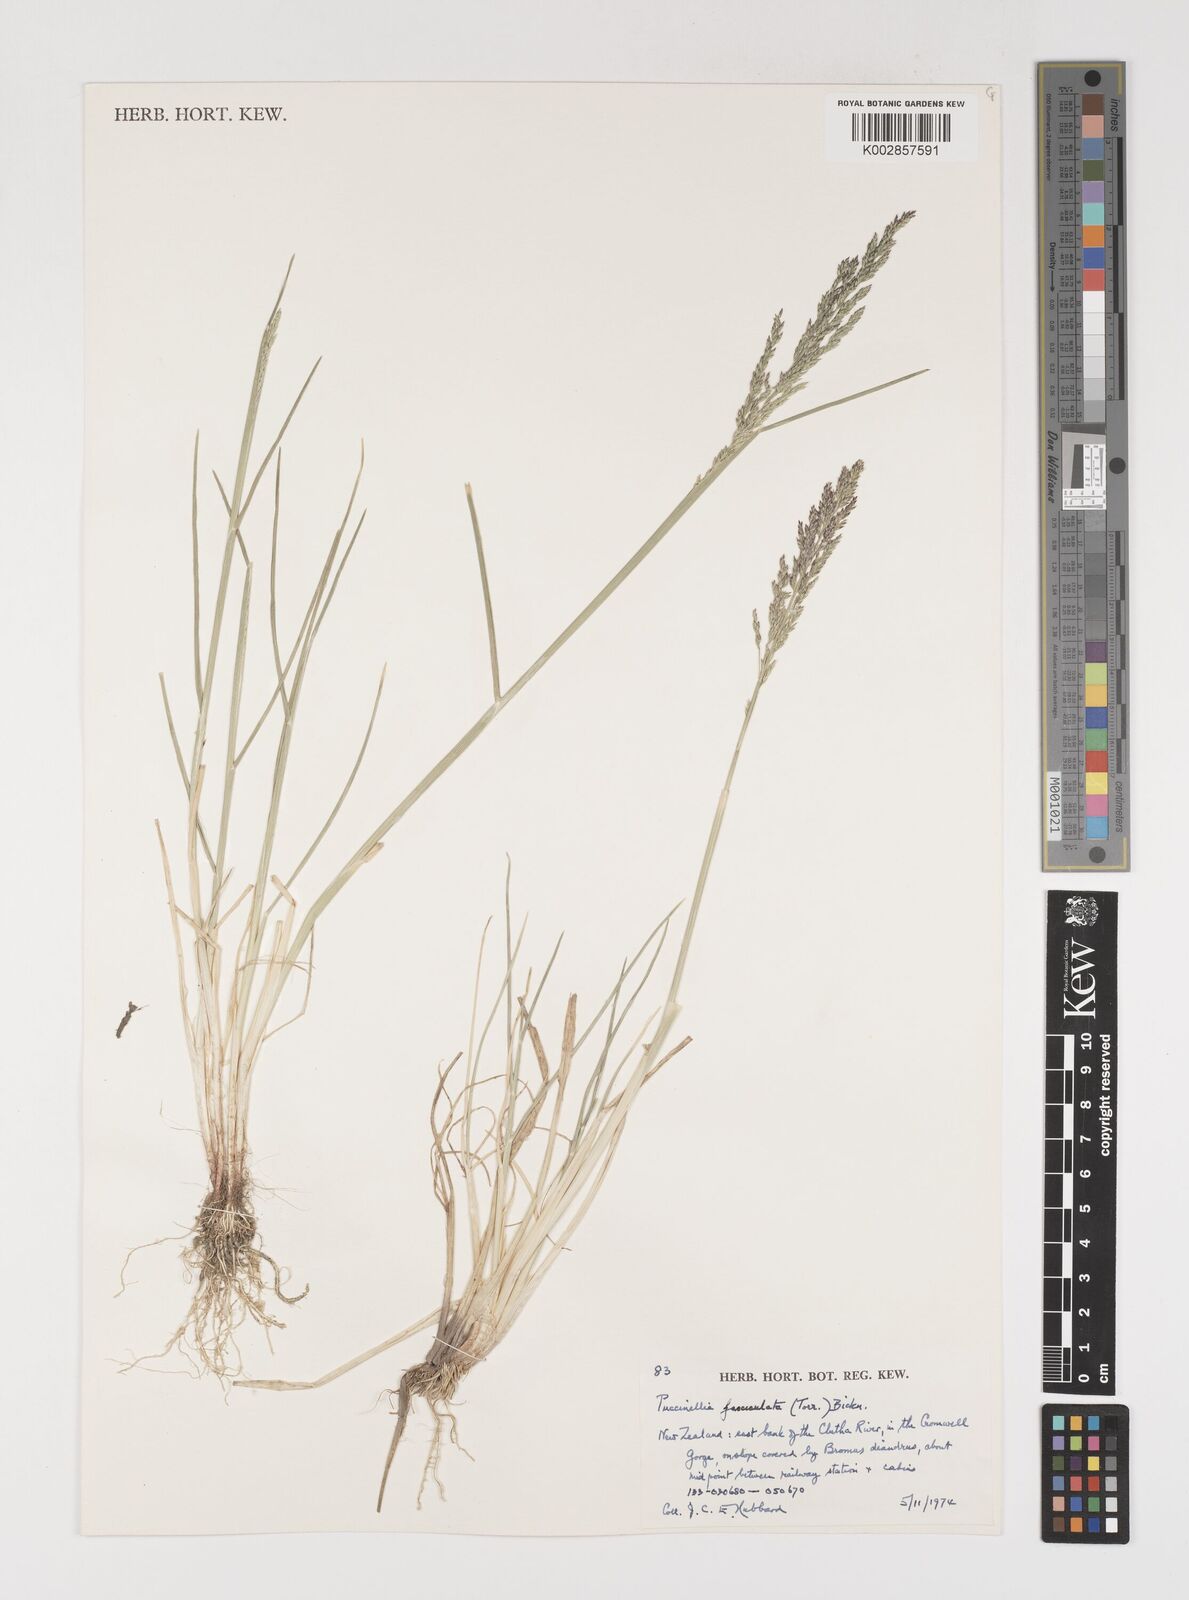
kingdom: Plantae
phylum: Tracheophyta
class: Liliopsida
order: Poales
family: Poaceae
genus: Puccinellia
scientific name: Puccinellia festuciformis
